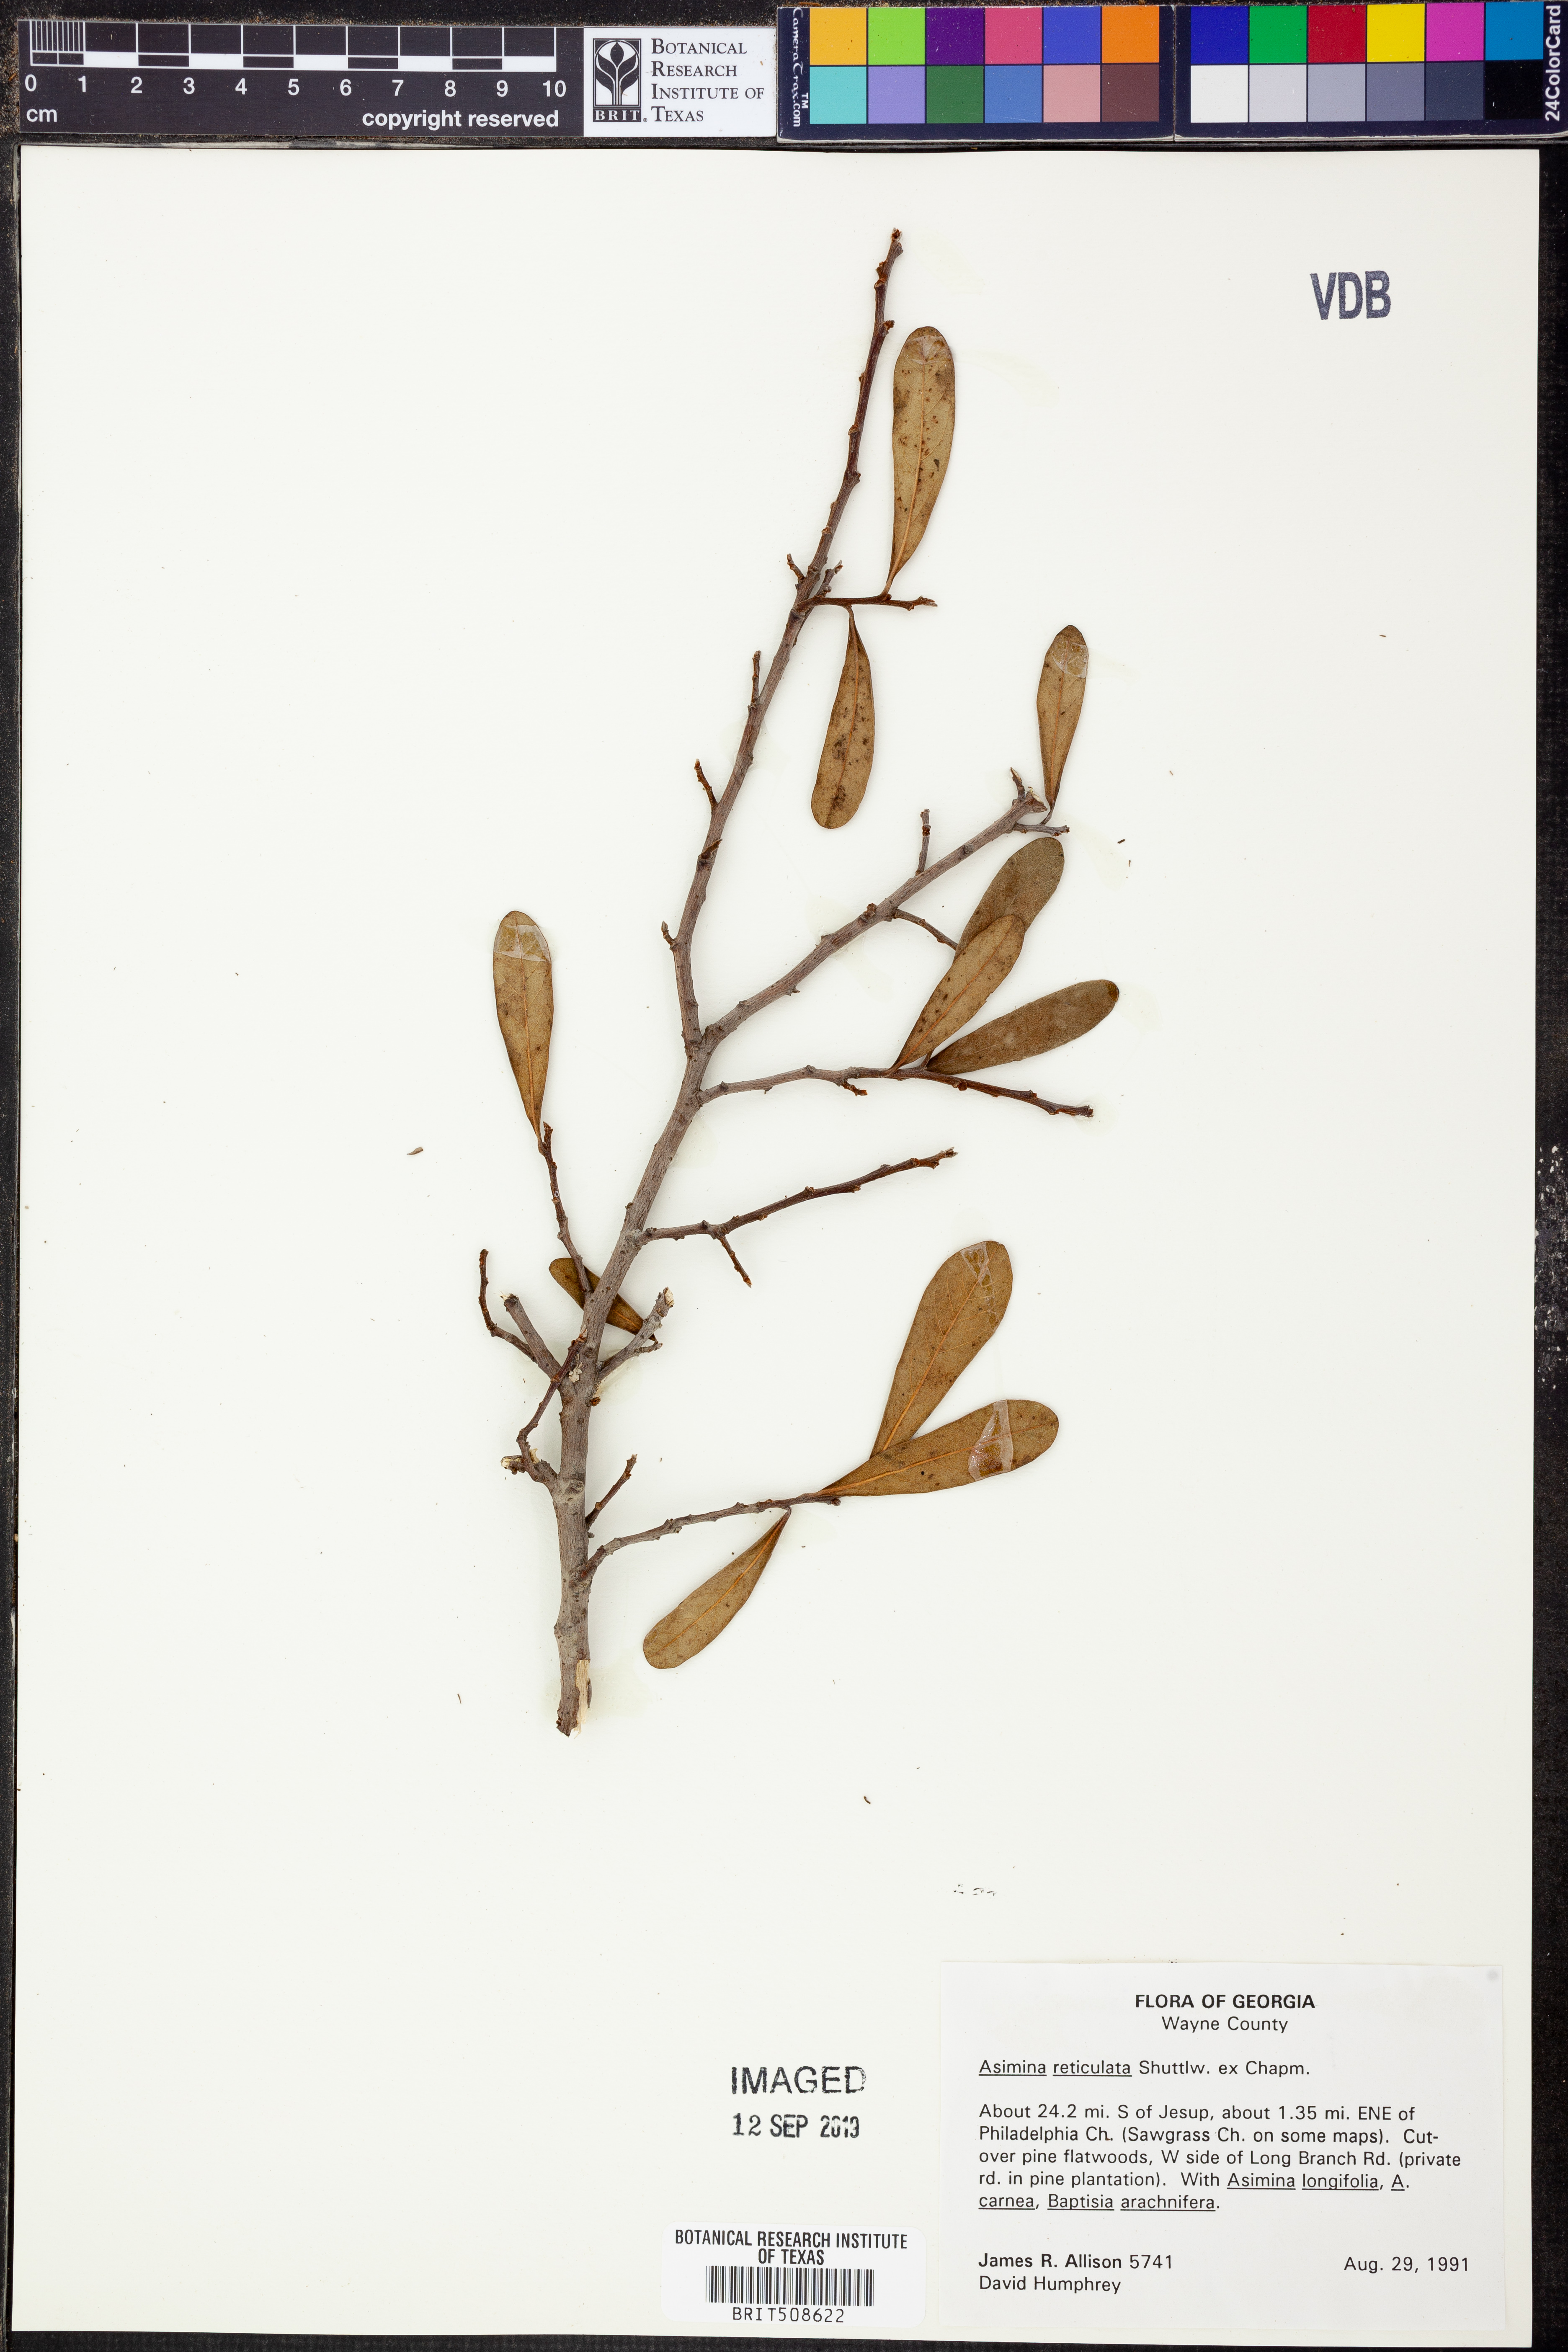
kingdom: Plantae
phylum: Tracheophyta
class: Magnoliopsida
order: Magnoliales
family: Annonaceae
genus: Asimina
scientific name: Asimina reticulata
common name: Flag pawpaw
